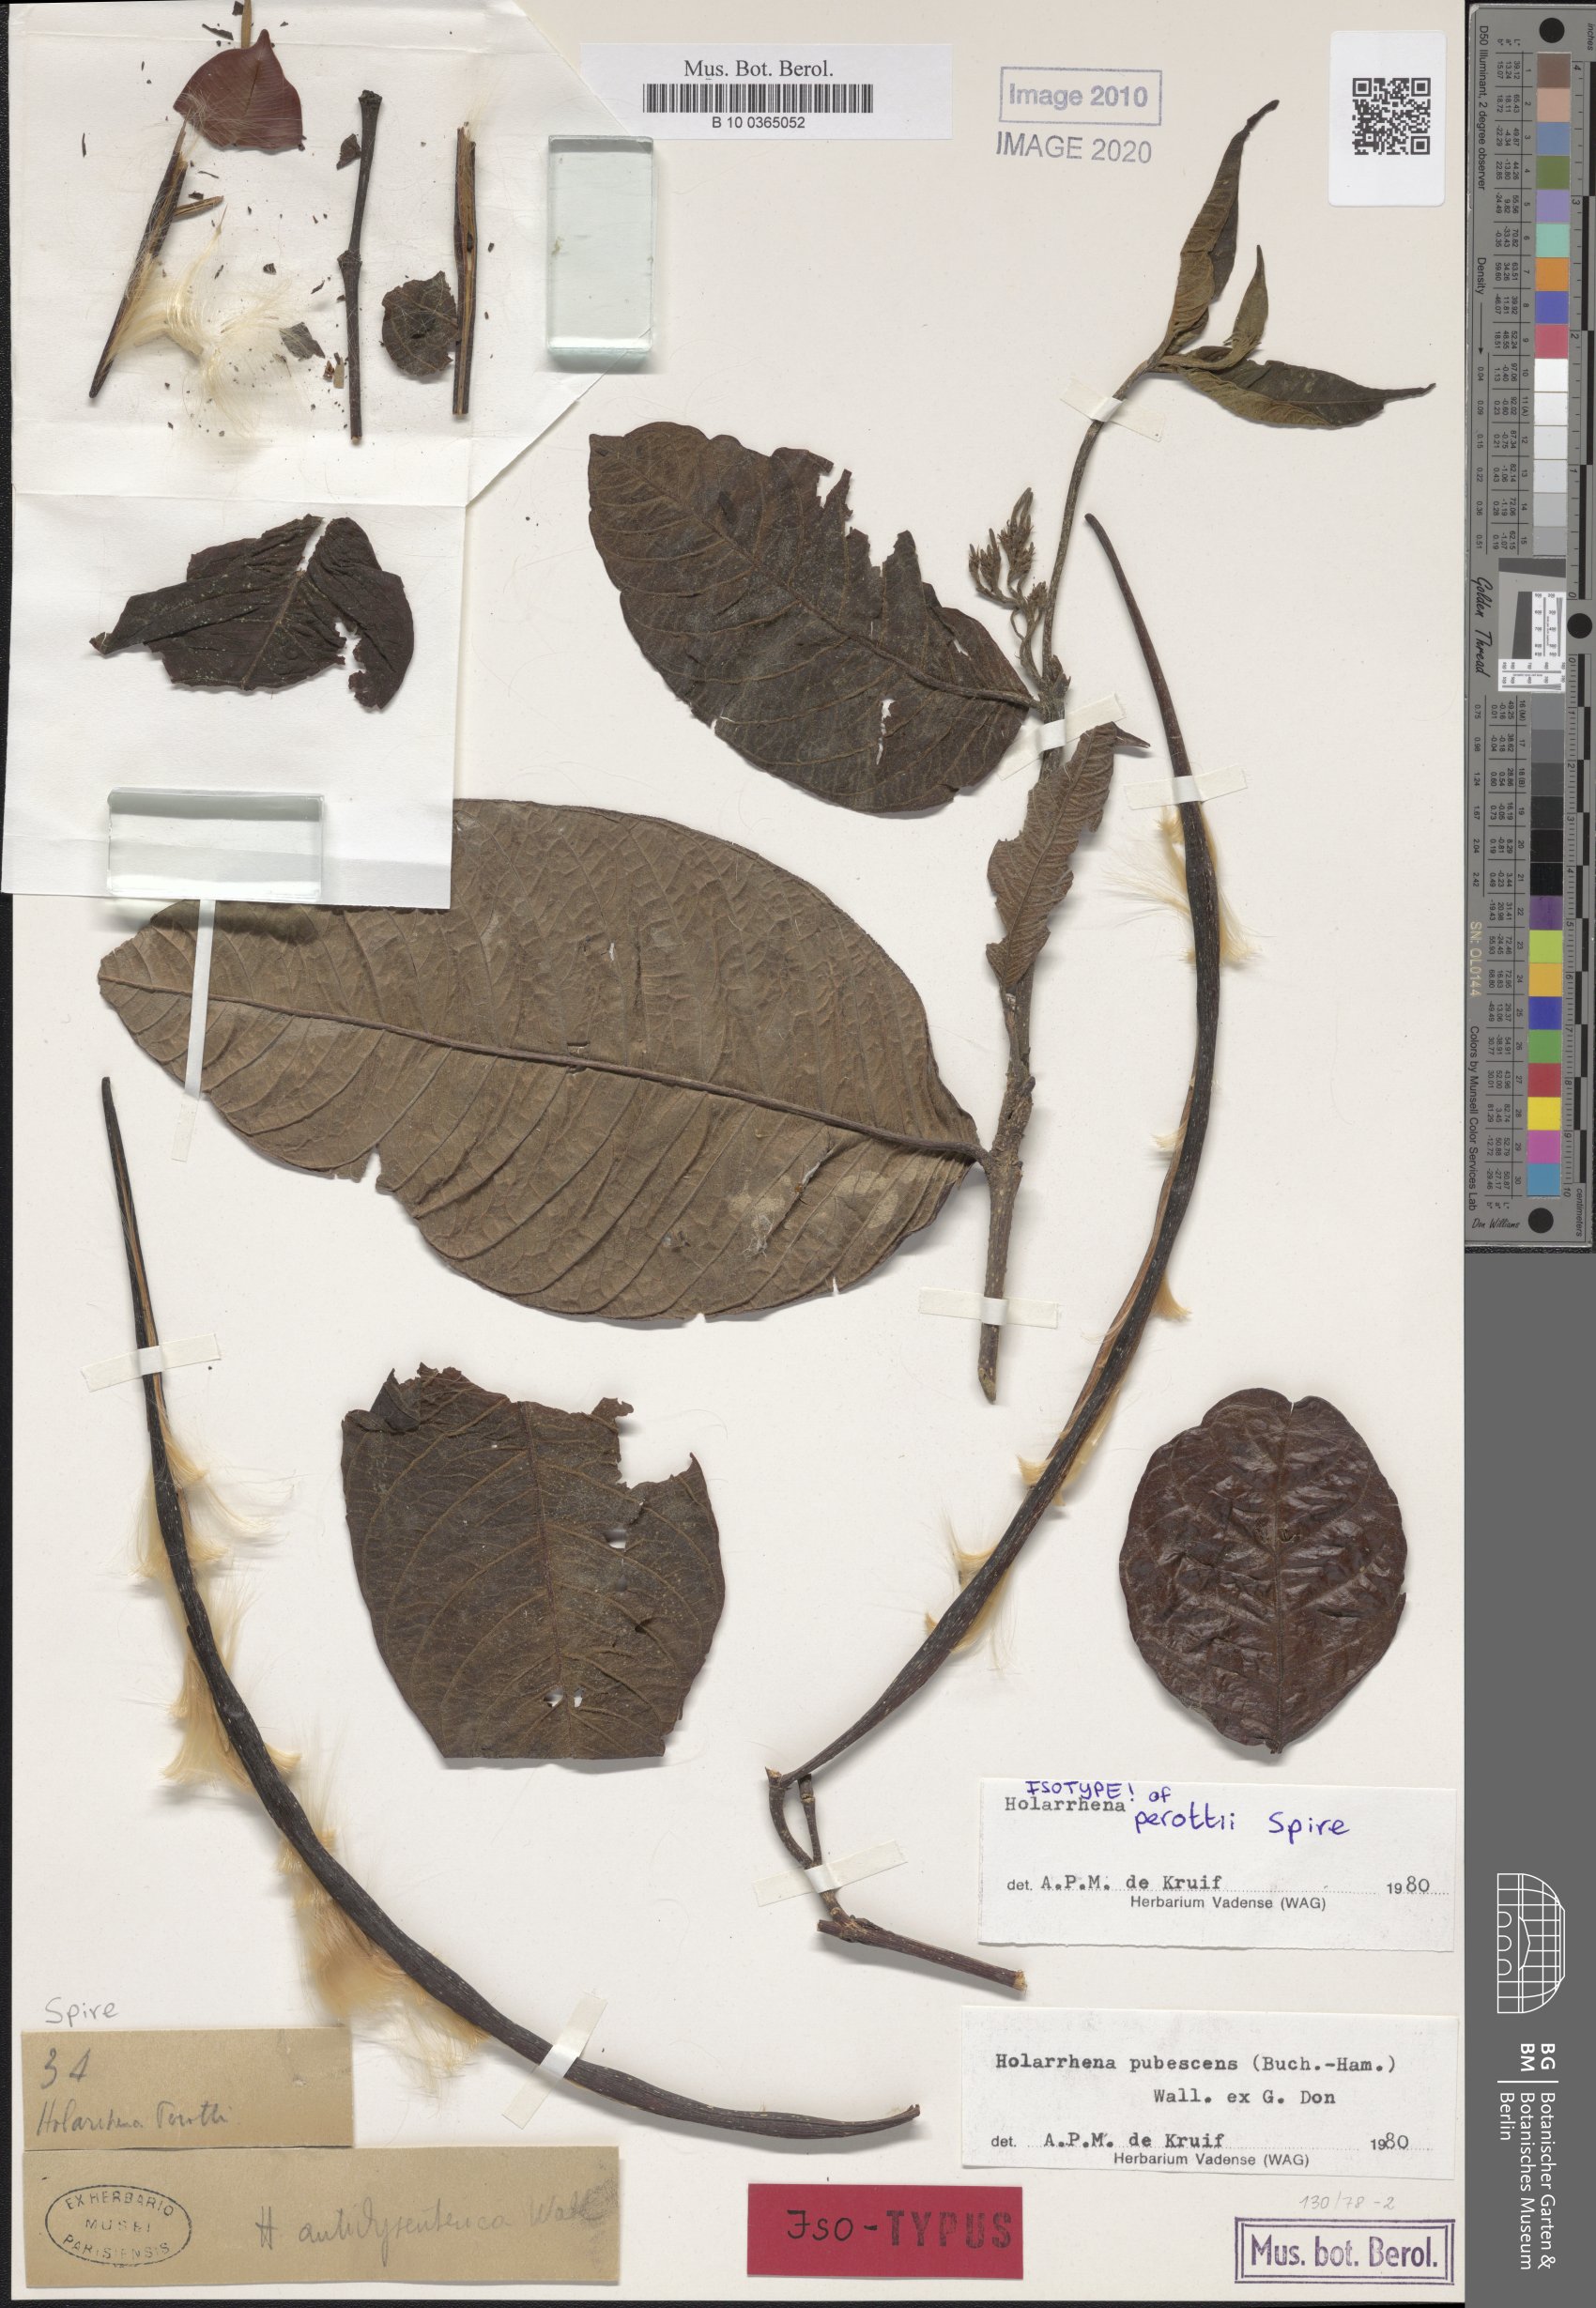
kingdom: Plantae
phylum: Tracheophyta
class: Magnoliopsida
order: Gentianales
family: Apocynaceae
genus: Holarrhena
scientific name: Holarrhena pubescens
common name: Bitter oleander
